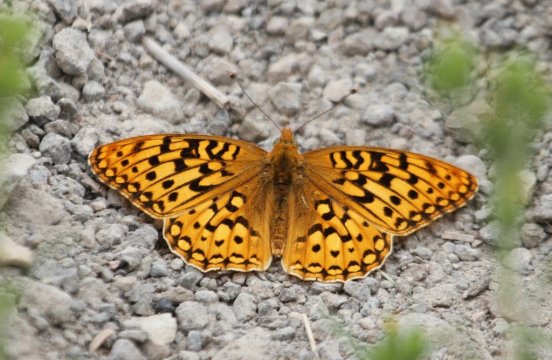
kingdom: Animalia
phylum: Arthropoda
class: Insecta
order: Lepidoptera
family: Nymphalidae
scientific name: Nymphalidae
